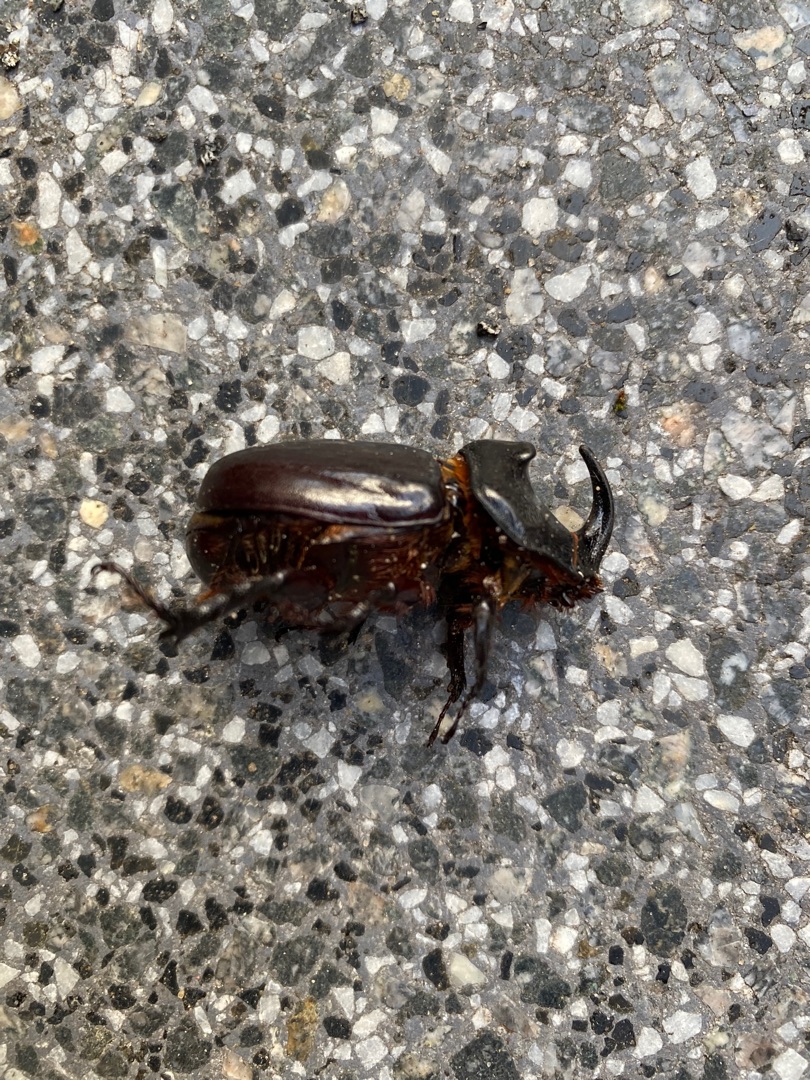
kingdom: Animalia
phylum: Arthropoda
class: Insecta
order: Coleoptera
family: Scarabaeidae
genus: Oryctes
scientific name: Oryctes nasicornis
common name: Næsehornsbille
